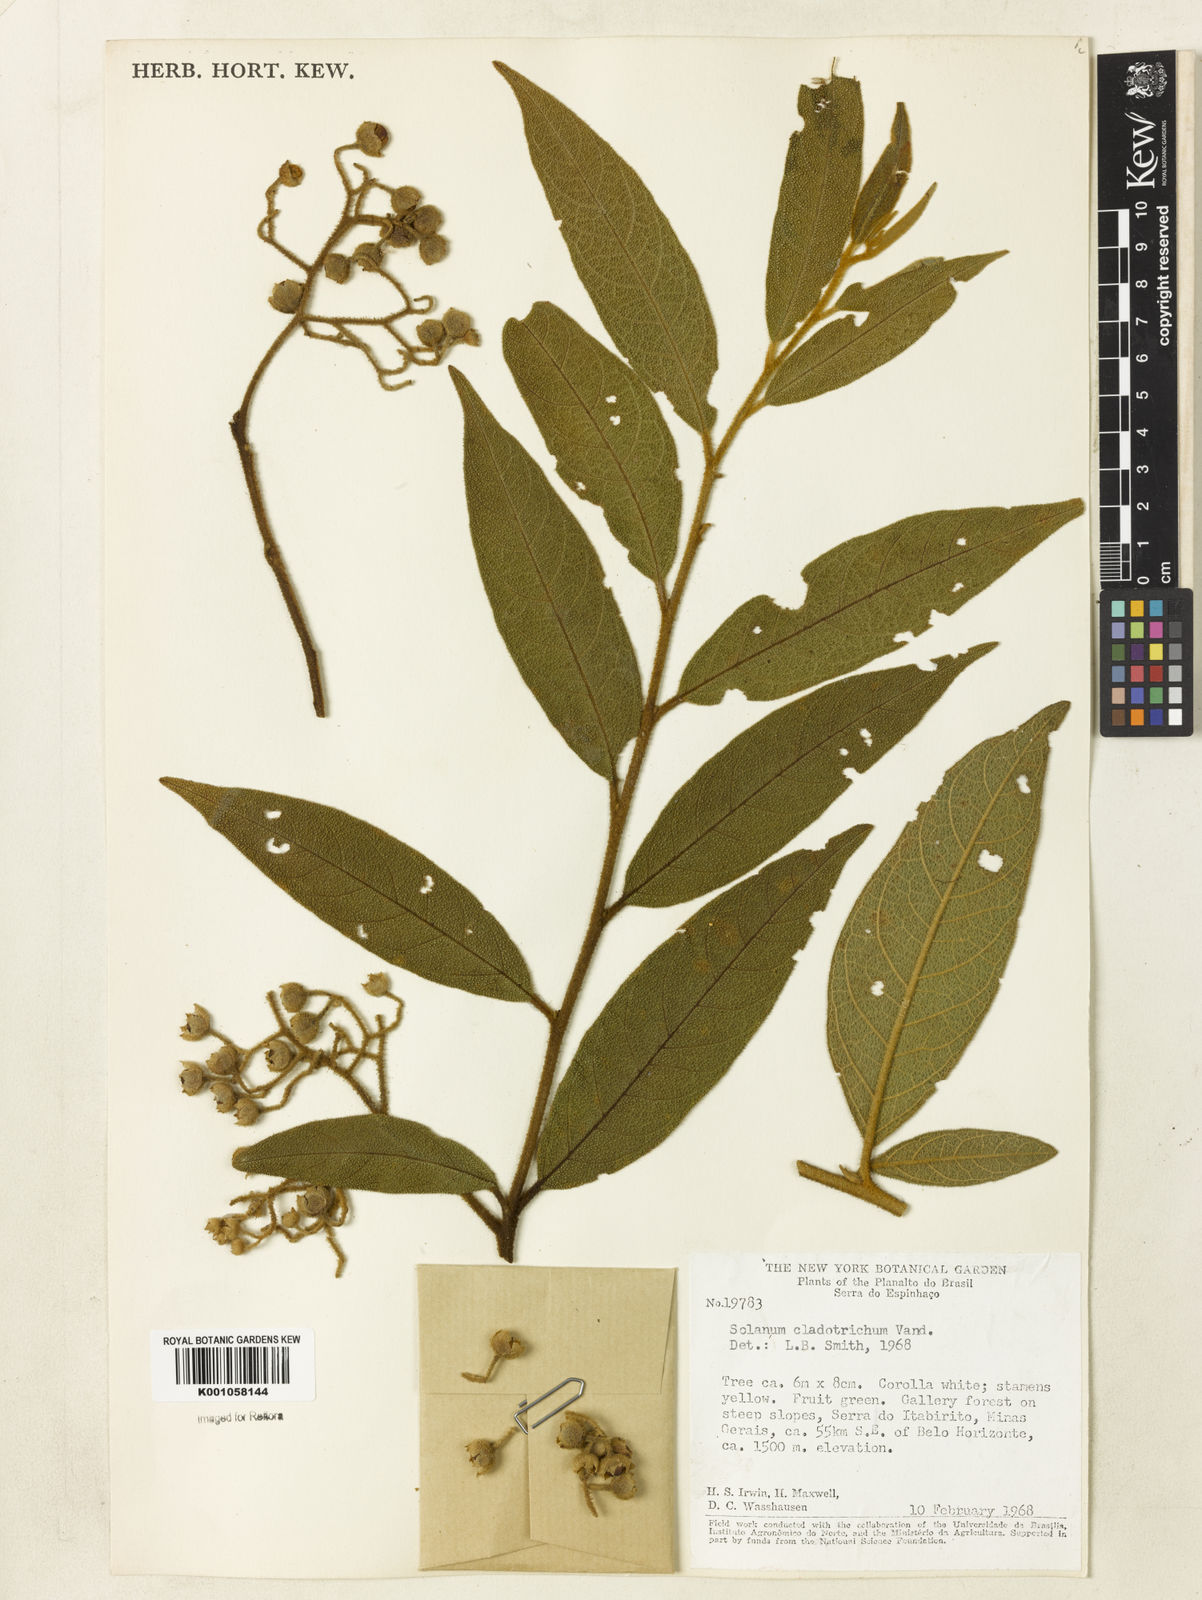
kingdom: Plantae
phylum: Tracheophyta
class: Magnoliopsida
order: Solanales
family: Solanaceae
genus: Solanum
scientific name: Solanum jussiaei
